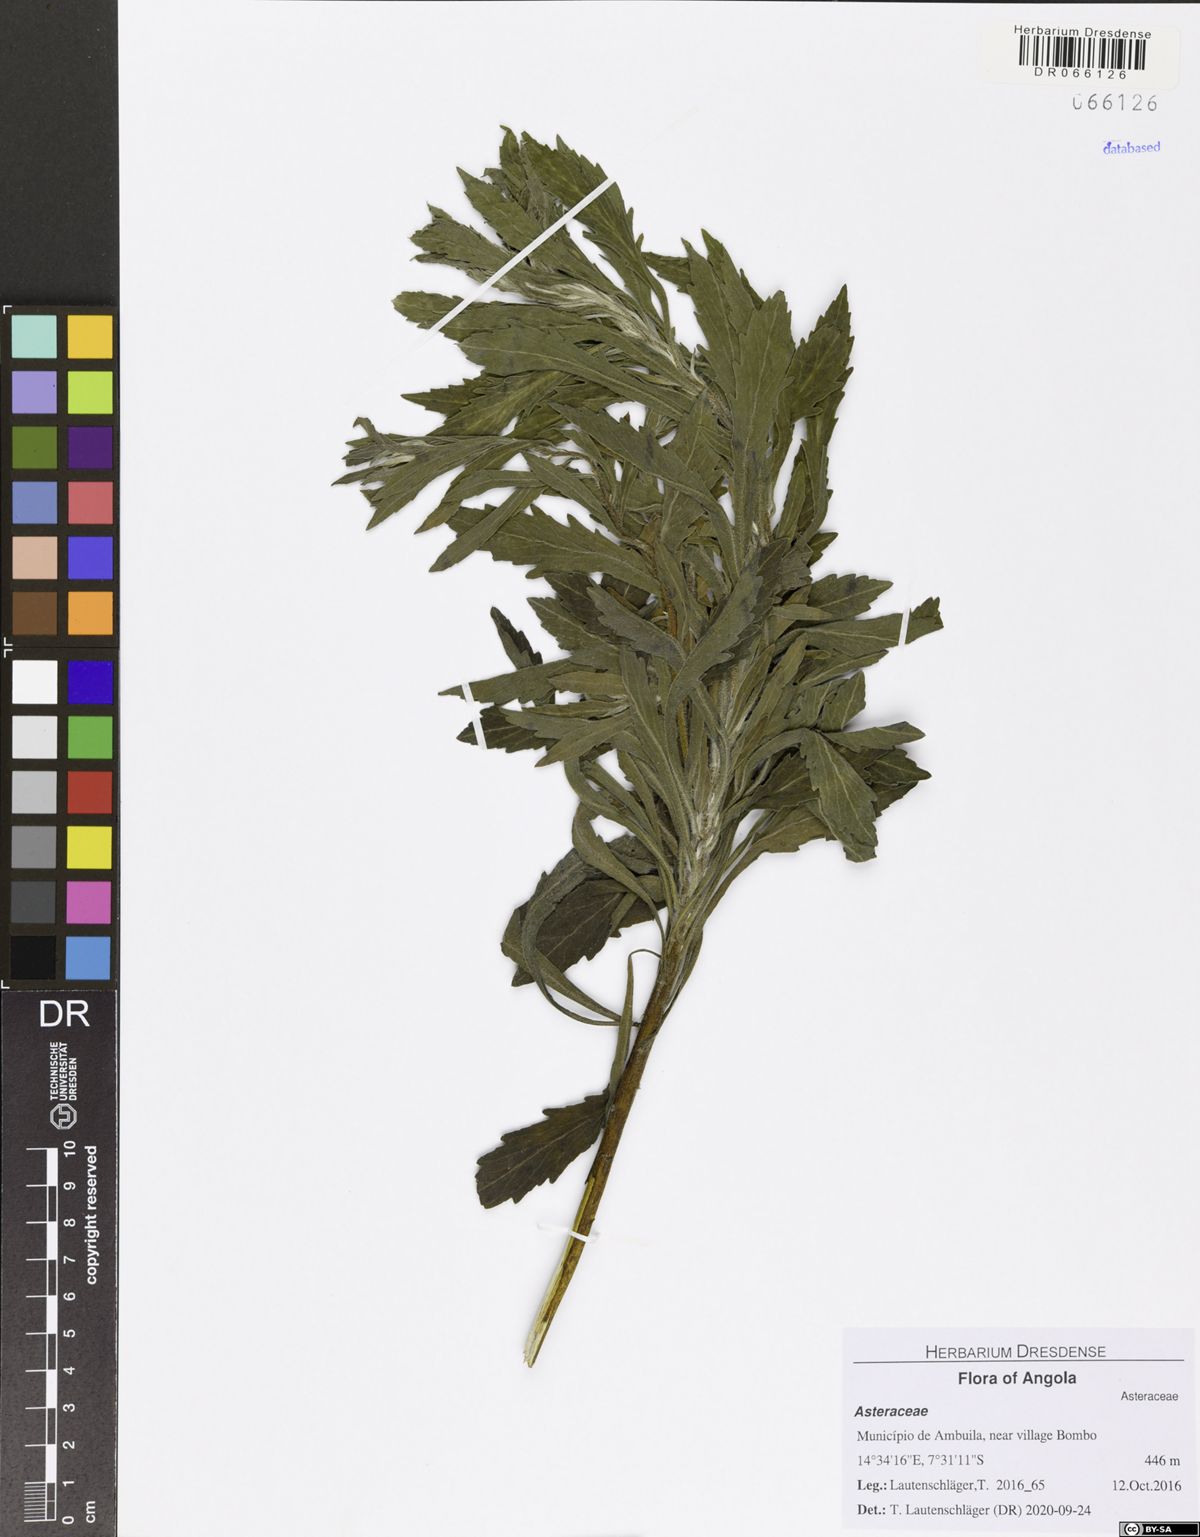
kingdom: Plantae
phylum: Tracheophyta
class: Magnoliopsida
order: Asterales
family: Asteraceae
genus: Nidorella
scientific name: Nidorella attenuata
